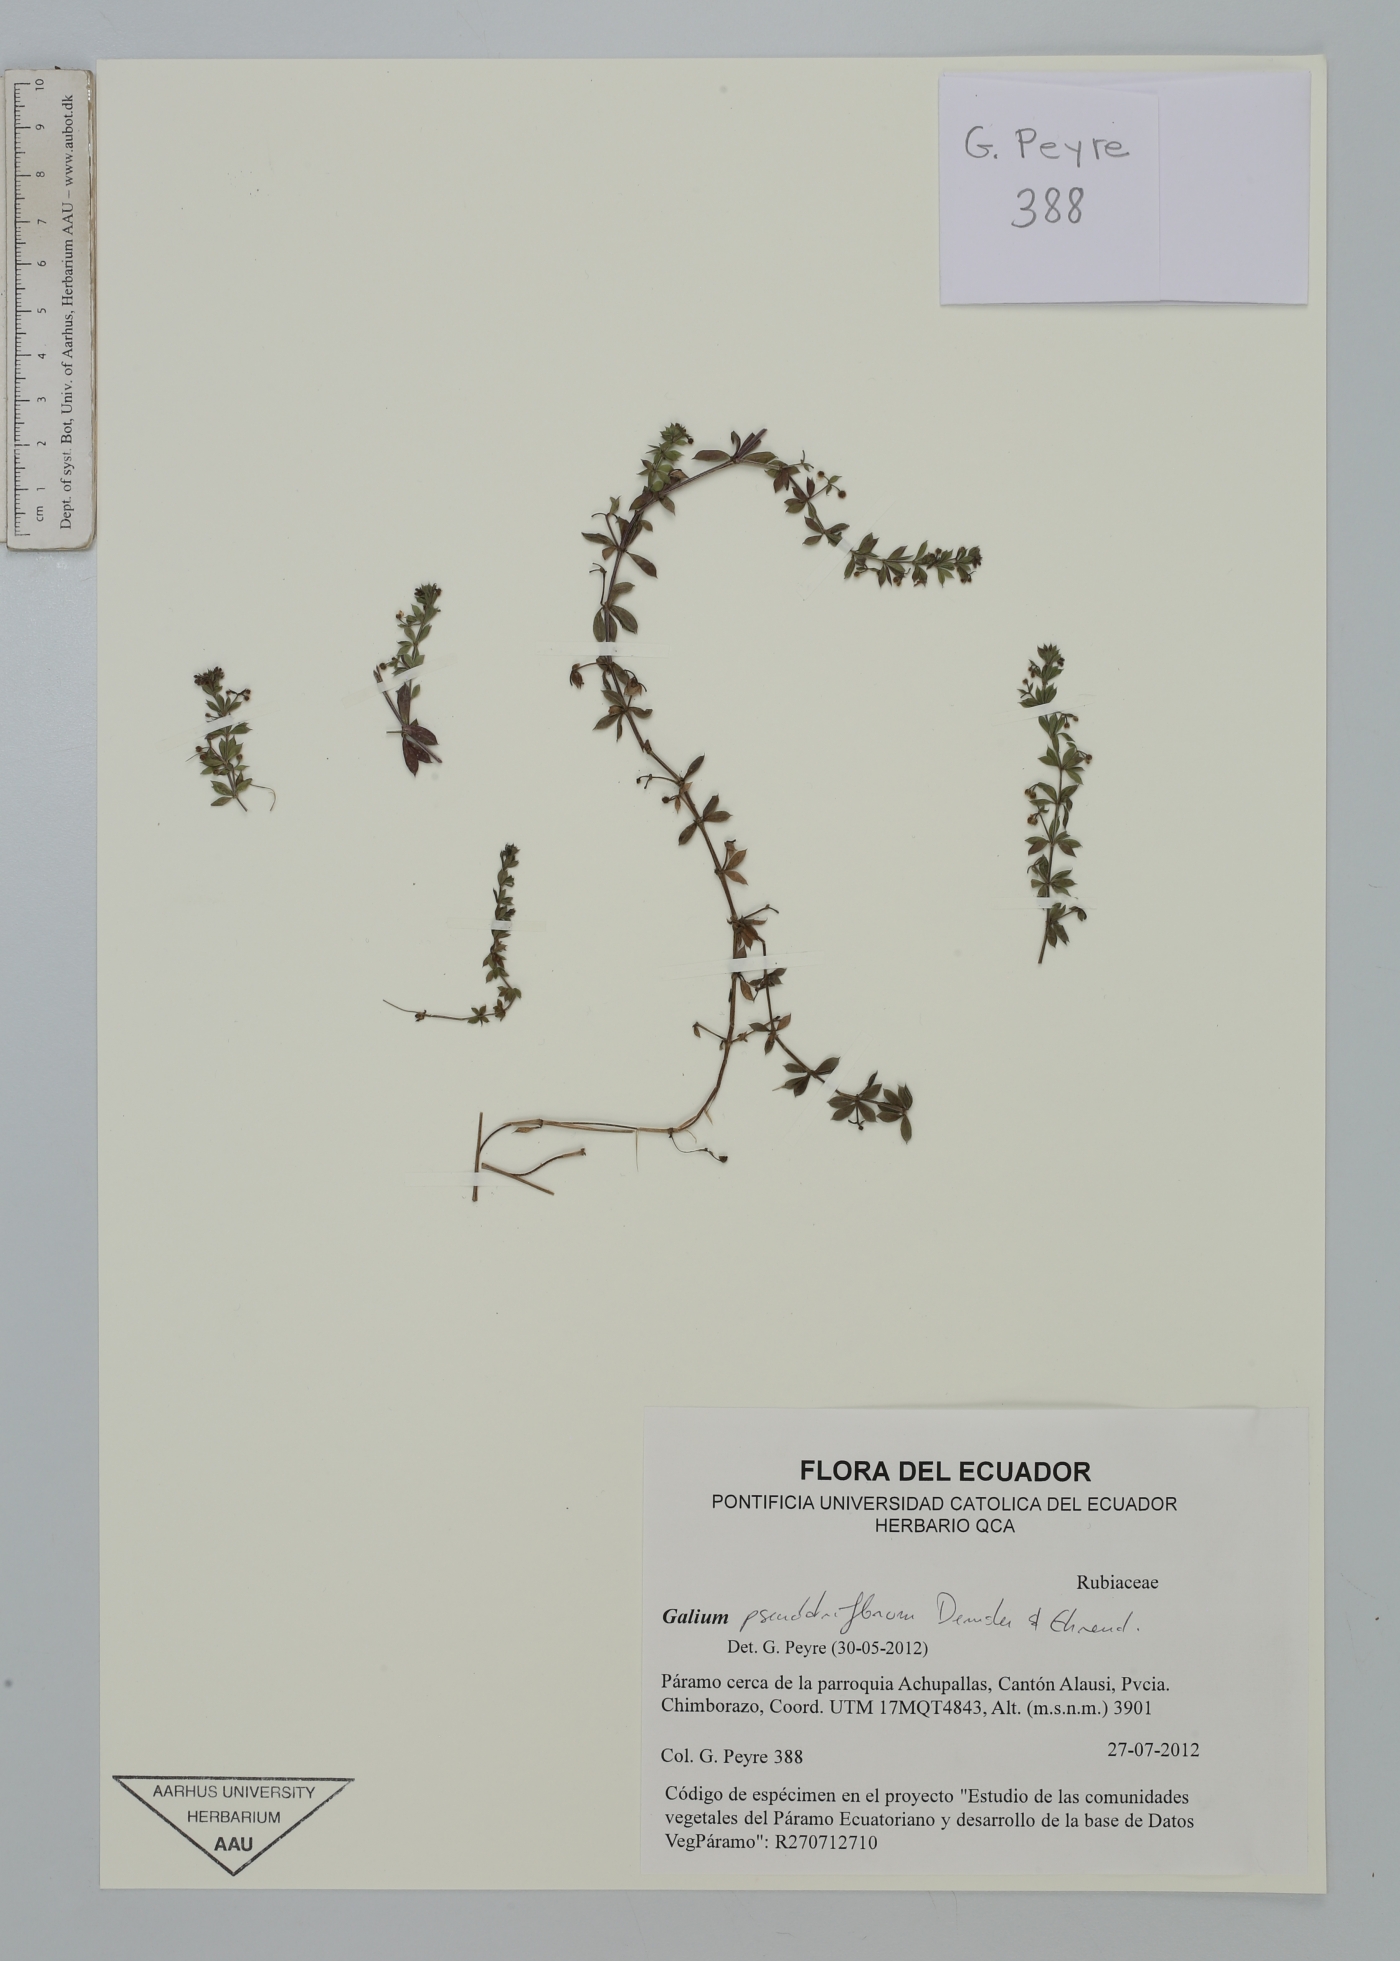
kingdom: Plantae
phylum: Tracheophyta
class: Magnoliopsida
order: Gentianales
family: Rubiaceae
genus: Galium
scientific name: Galium pseudotriflorum
